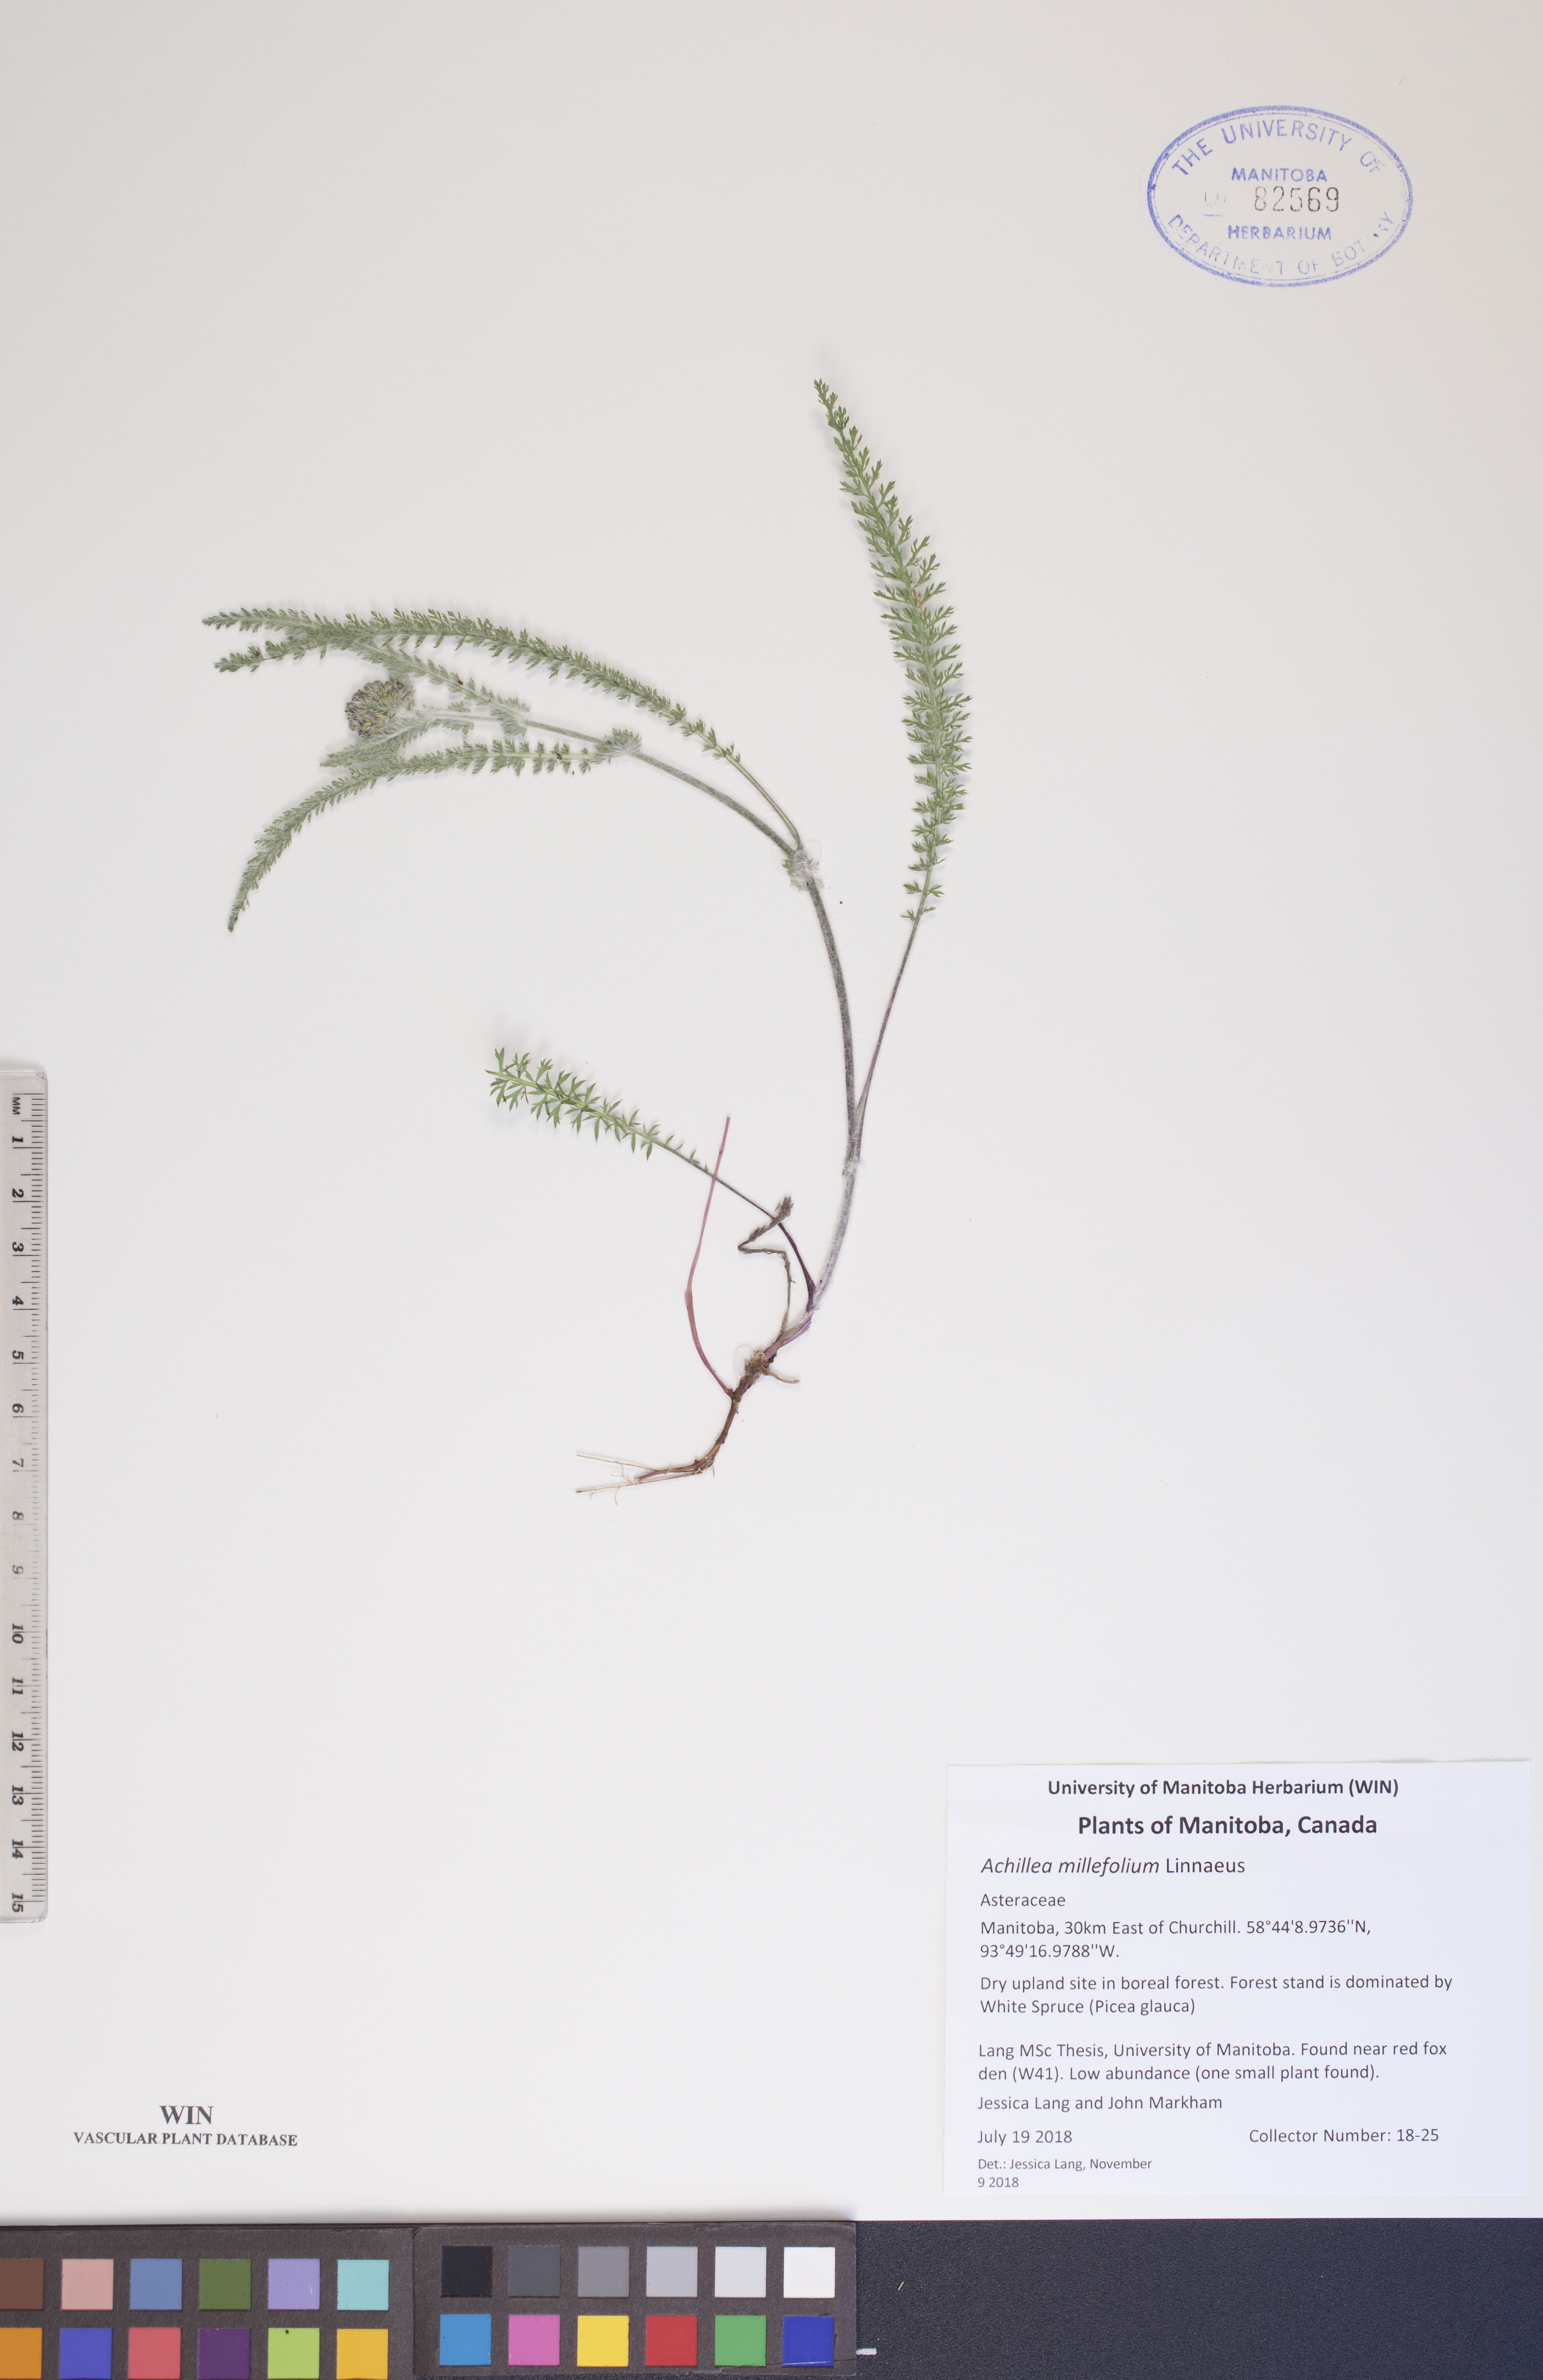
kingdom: Plantae
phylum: Tracheophyta
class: Magnoliopsida
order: Asterales
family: Asteraceae
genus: Achillea
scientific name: Achillea millefolium
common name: Yarrow
